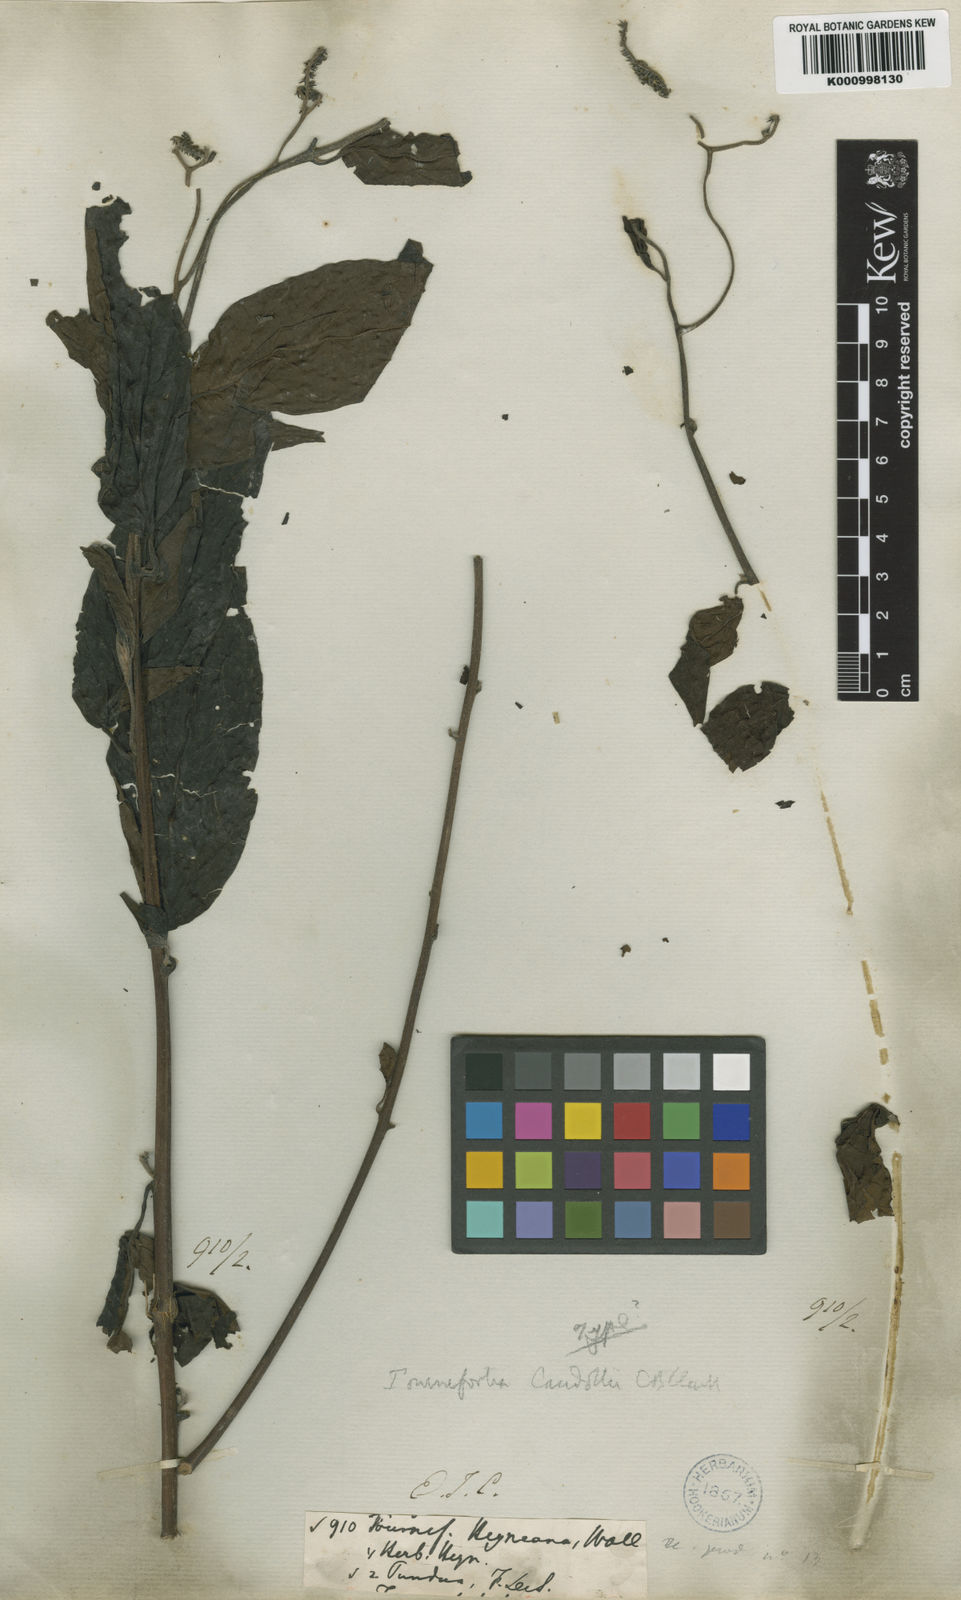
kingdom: Plantae
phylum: Tracheophyta
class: Magnoliopsida
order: Boraginales
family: Heliotropiaceae
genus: Tournefortia
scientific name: Tournefortia montana
